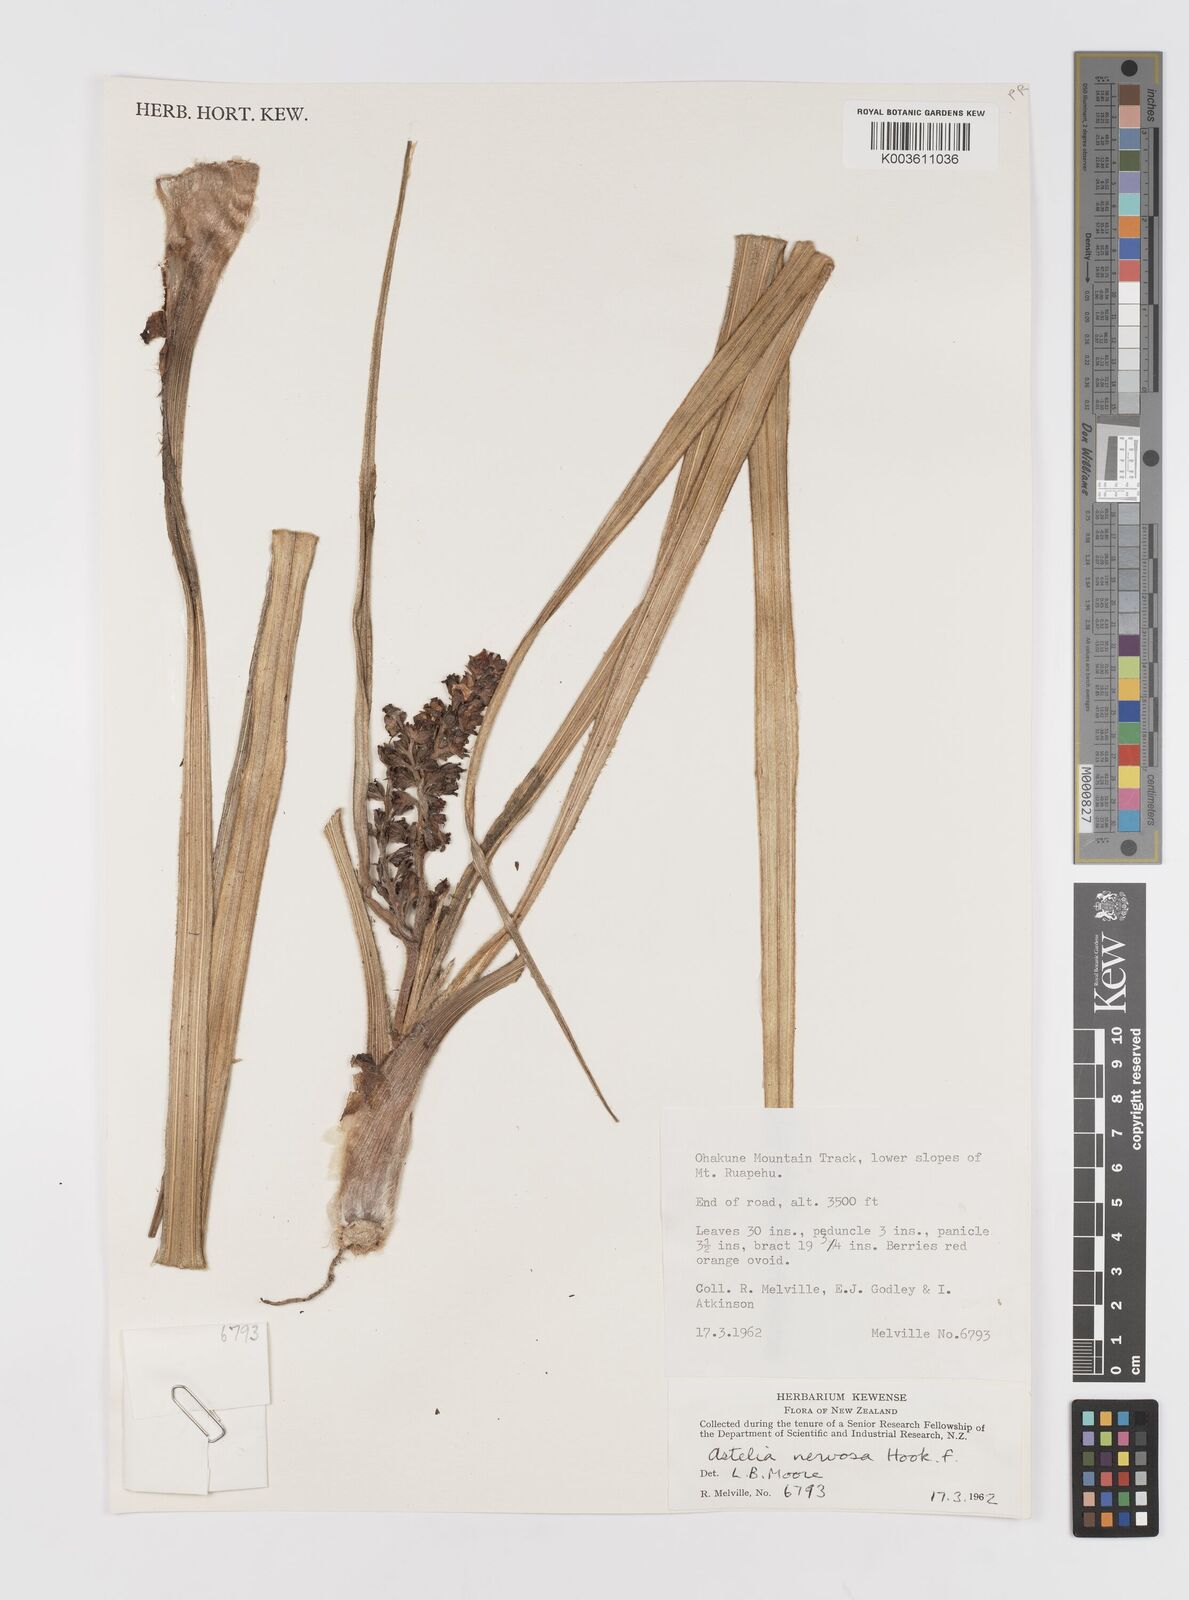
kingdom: Plantae
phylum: Tracheophyta
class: Liliopsida
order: Asparagales
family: Asteliaceae
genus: Astelia
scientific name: Astelia nervosa
